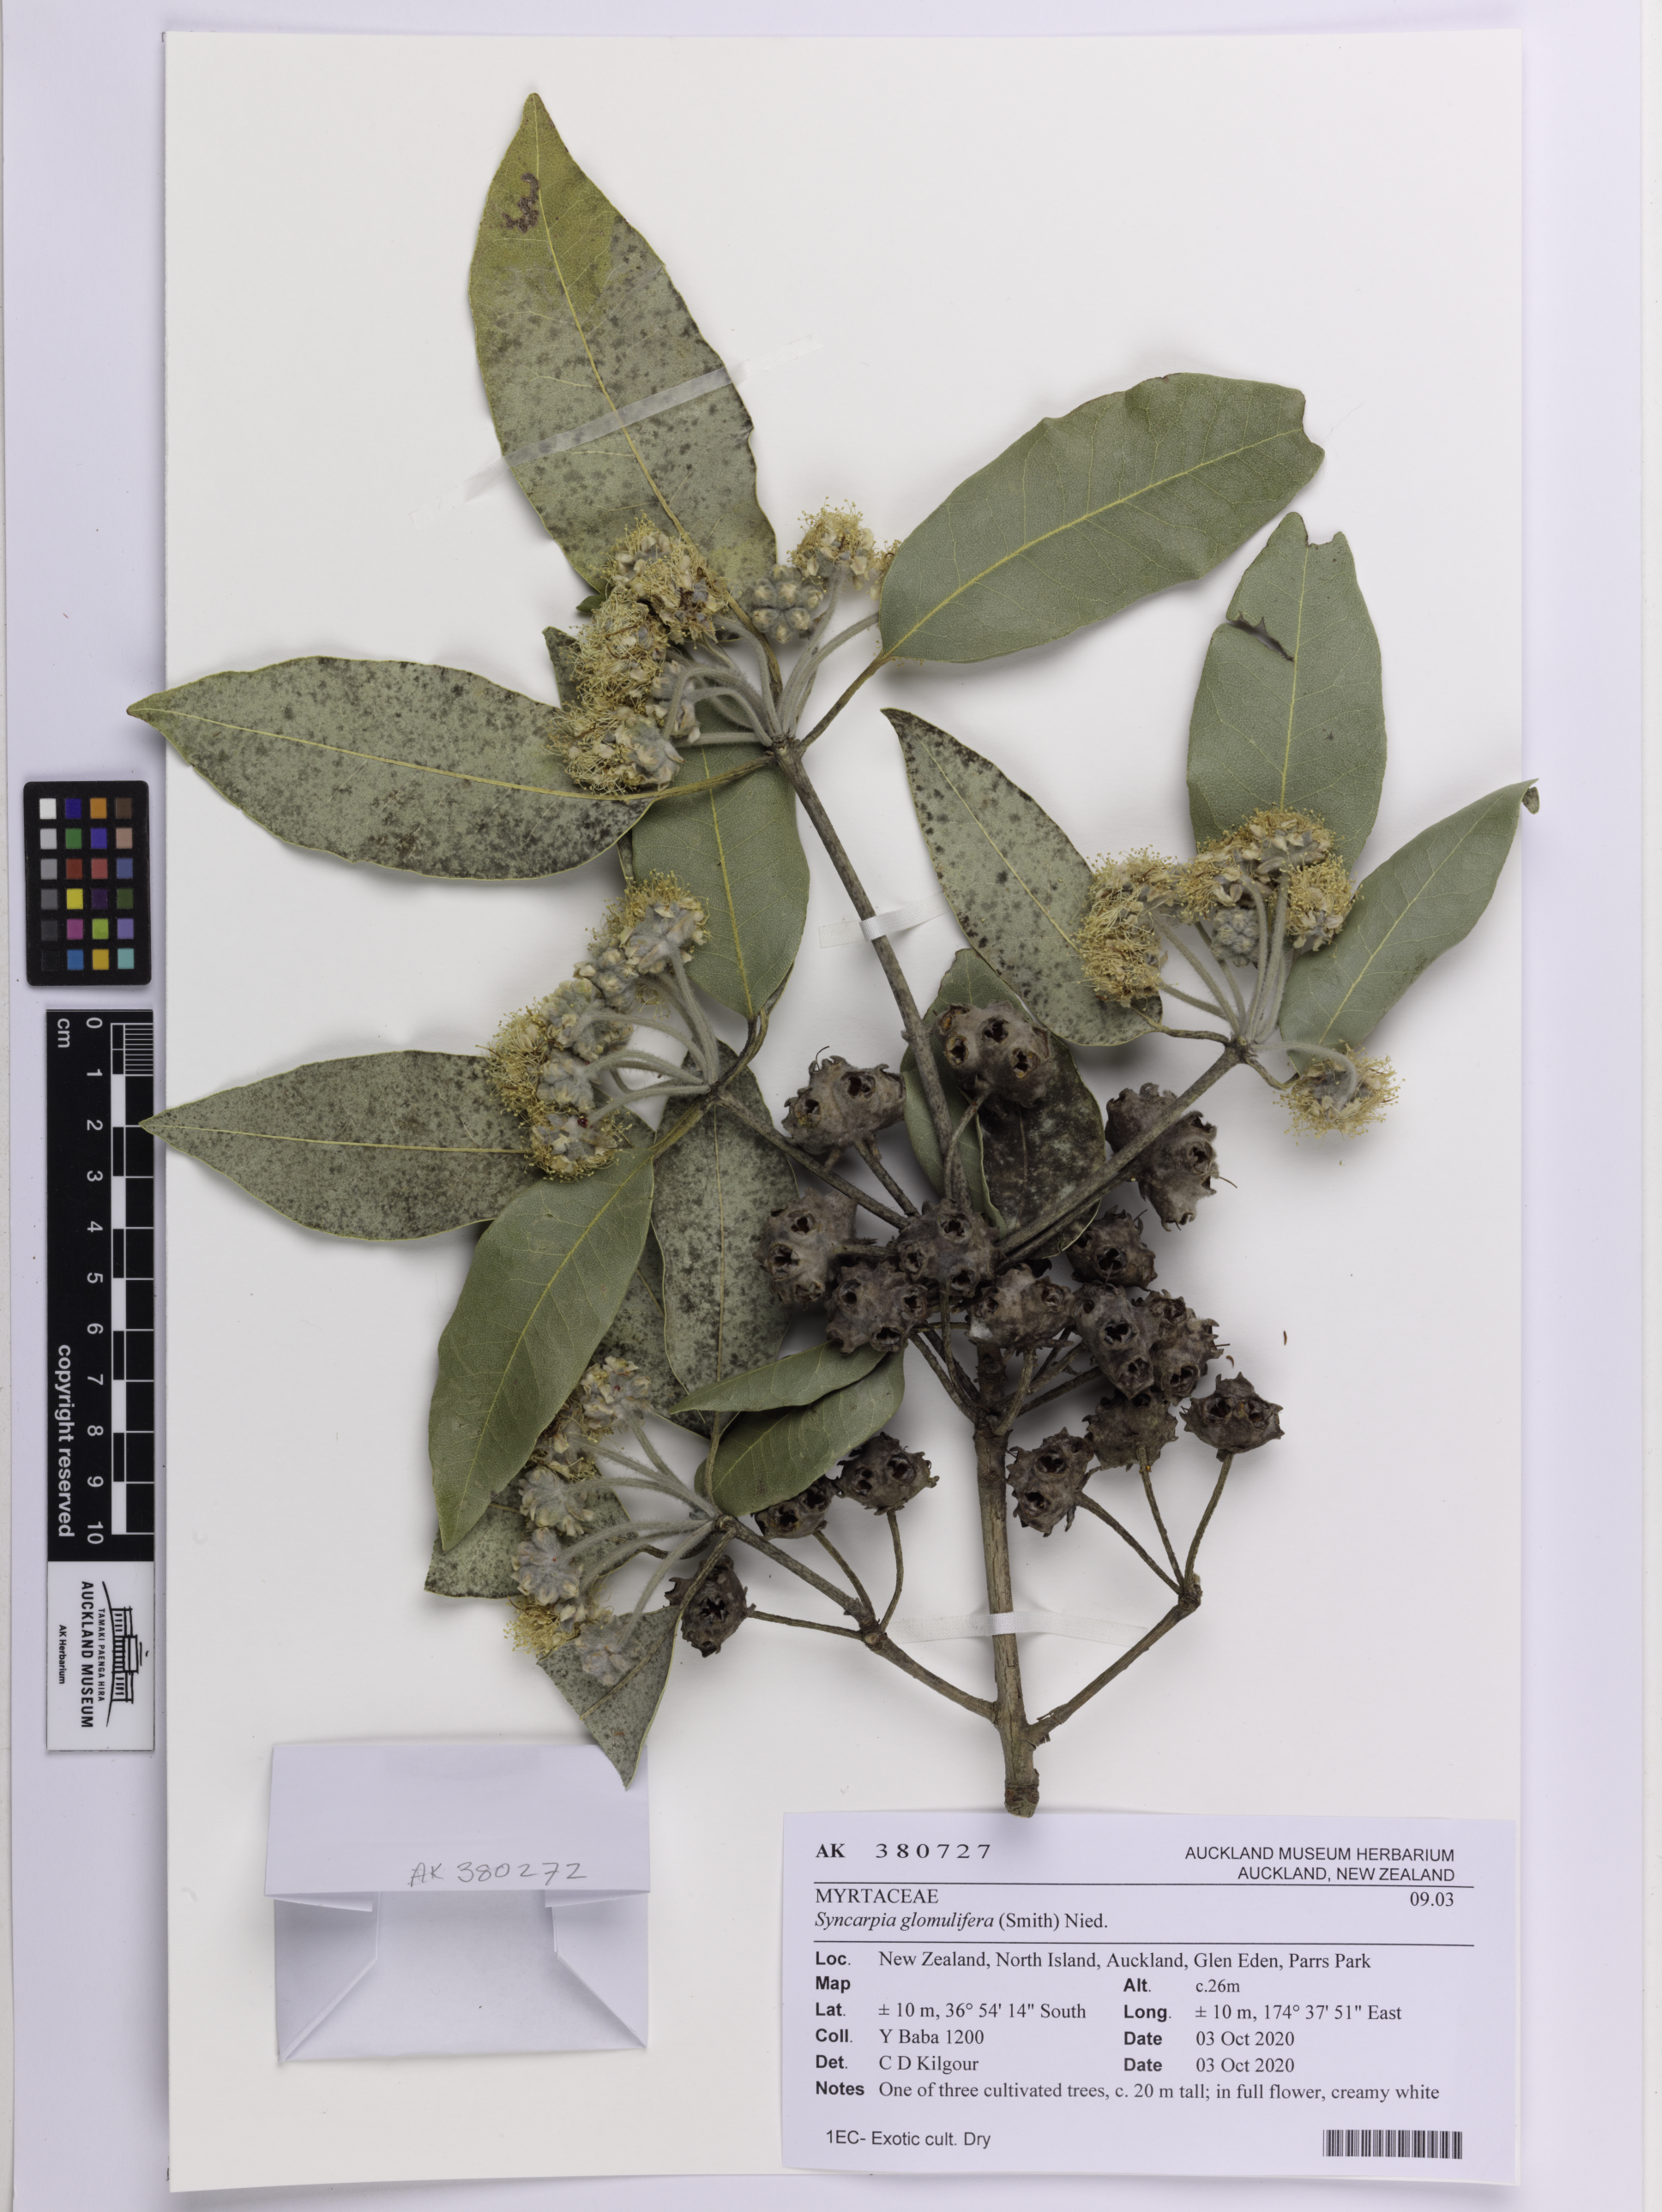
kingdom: Plantae
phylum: Tracheophyta
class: Magnoliopsida
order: Myrtales
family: Myrtaceae
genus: Syncarpia
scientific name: Syncarpia glomulifera
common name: Turpentine tree
